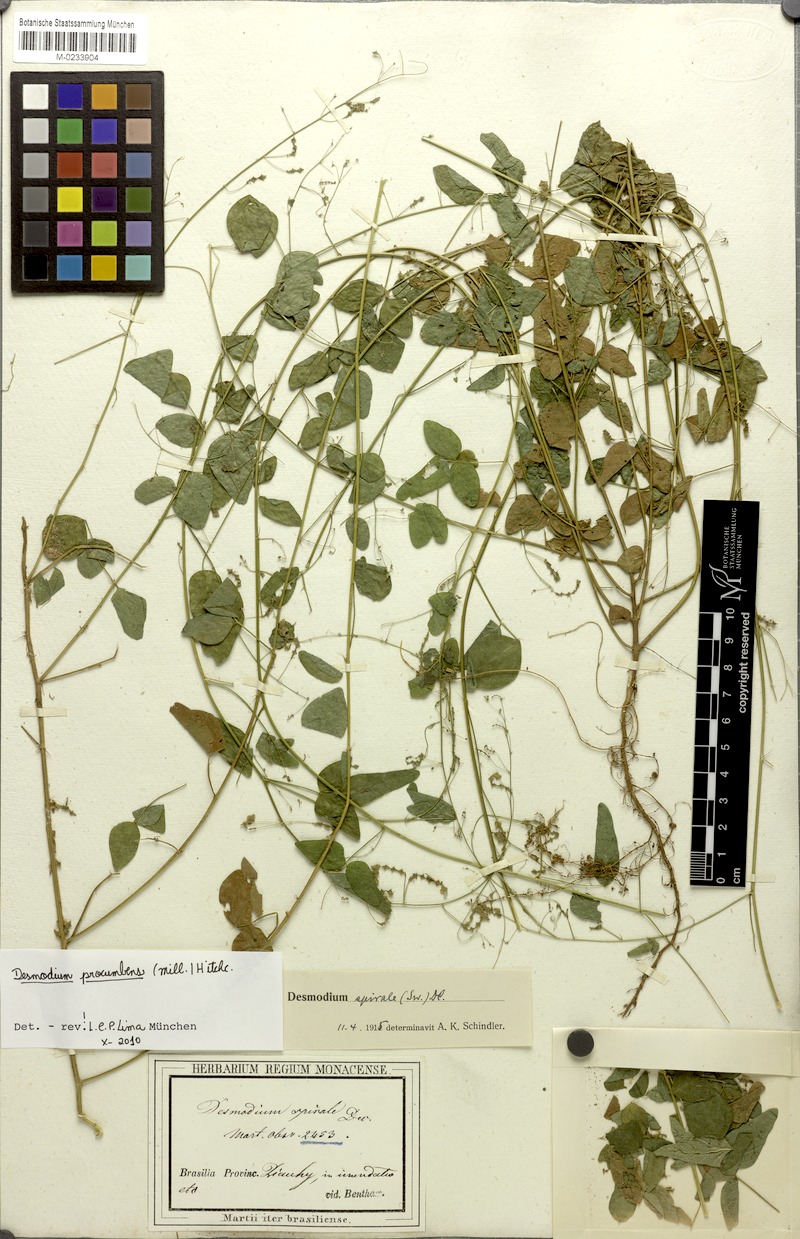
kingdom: Plantae
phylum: Tracheophyta
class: Magnoliopsida
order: Fabales
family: Fabaceae
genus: Desmodium
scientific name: Desmodium procumbens
